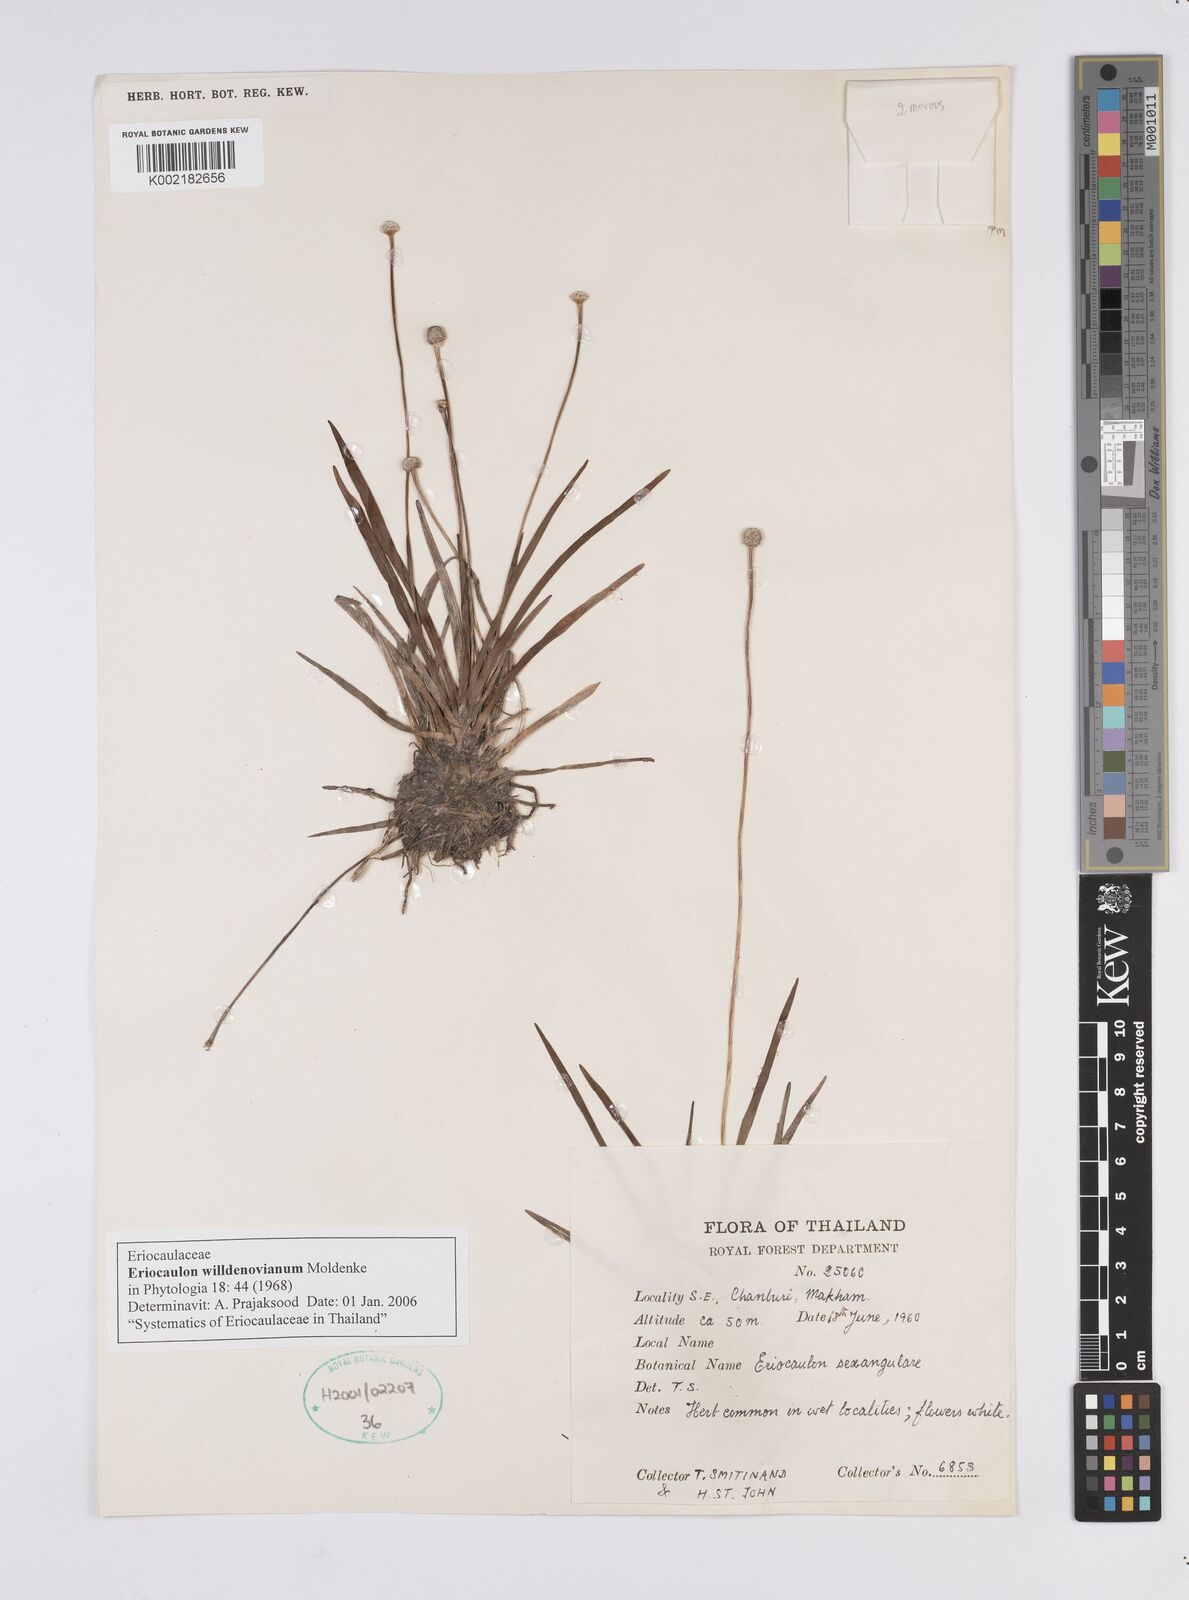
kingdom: Plantae
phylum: Tracheophyta
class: Liliopsida
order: Poales
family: Eriocaulaceae
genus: Eriocaulon
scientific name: Eriocaulon willdenovianum
